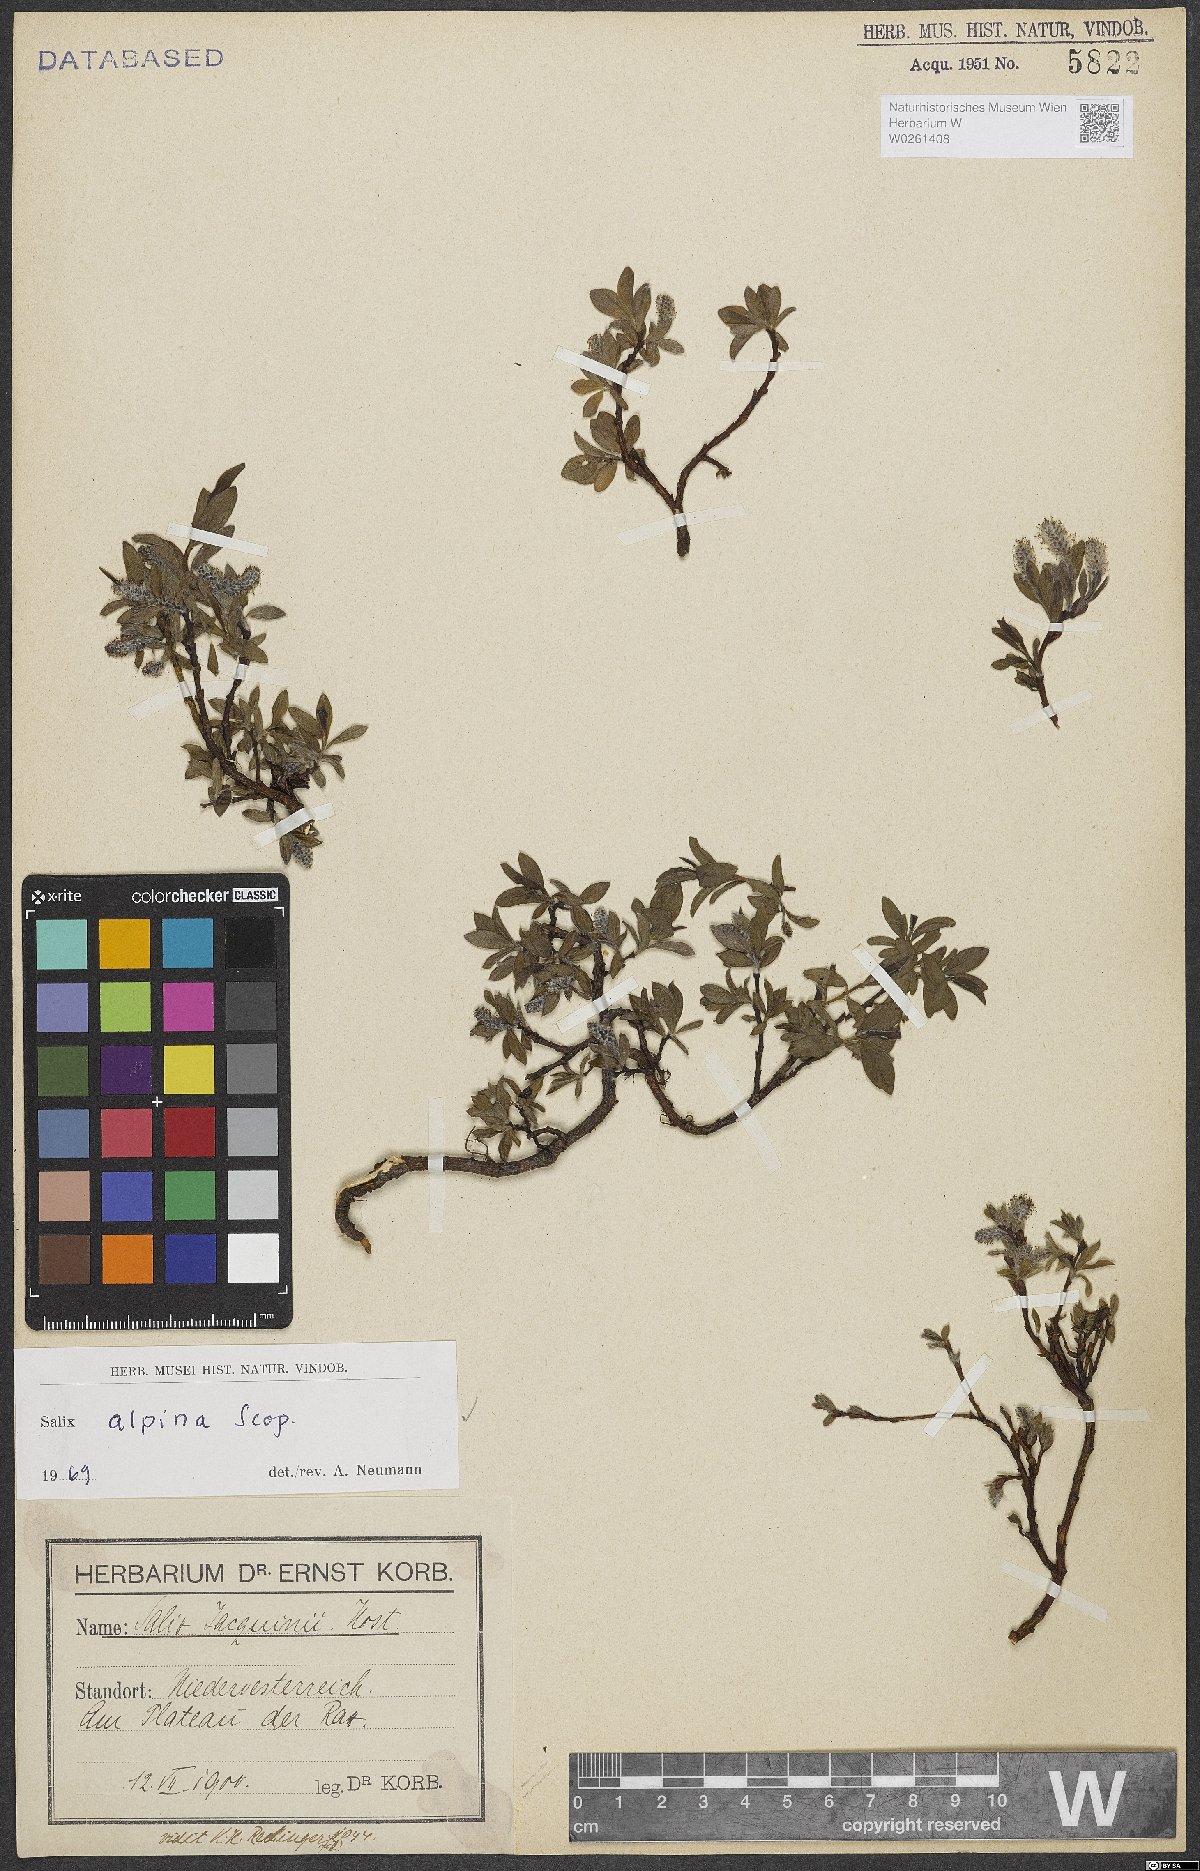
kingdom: Plantae
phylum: Tracheophyta
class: Magnoliopsida
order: Malpighiales
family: Salicaceae
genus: Salix
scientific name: Salix alpina
